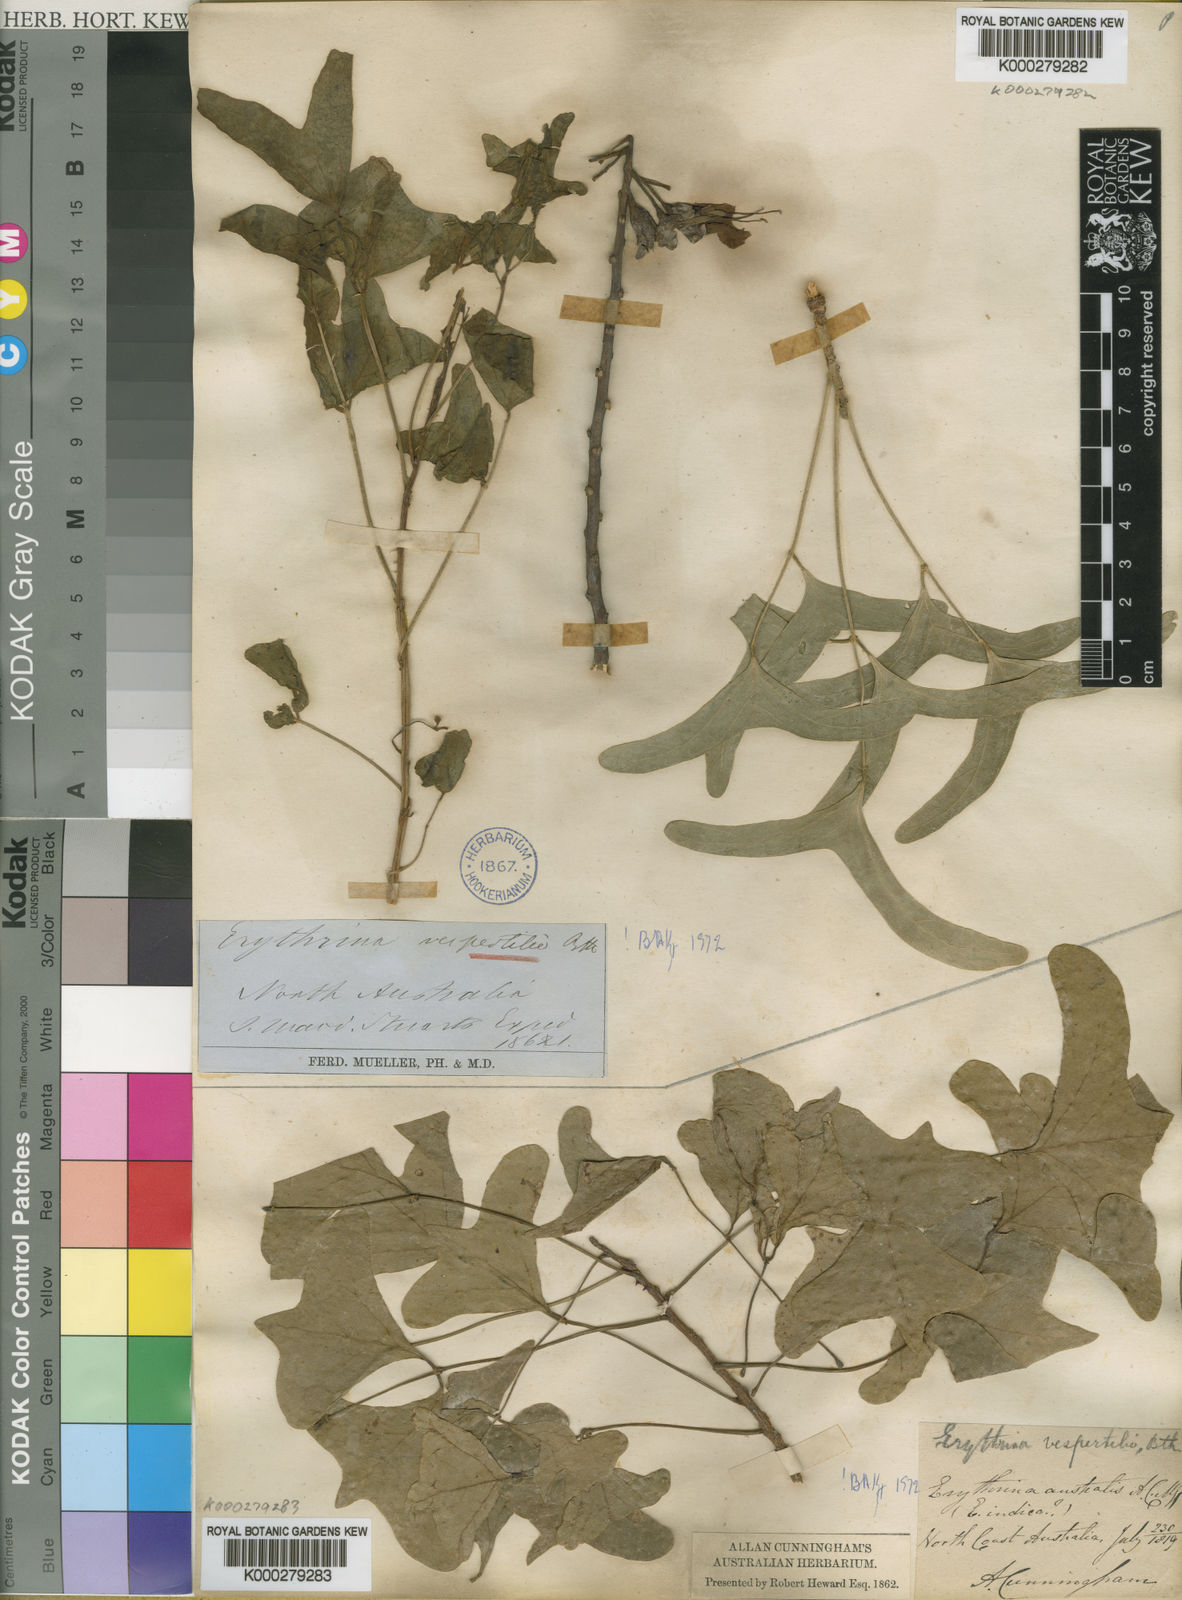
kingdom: Plantae
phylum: Tracheophyta
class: Magnoliopsida
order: Fabales
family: Fabaceae
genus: Erythrina
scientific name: Erythrina vespertilio
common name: Bat-wing coral tree
